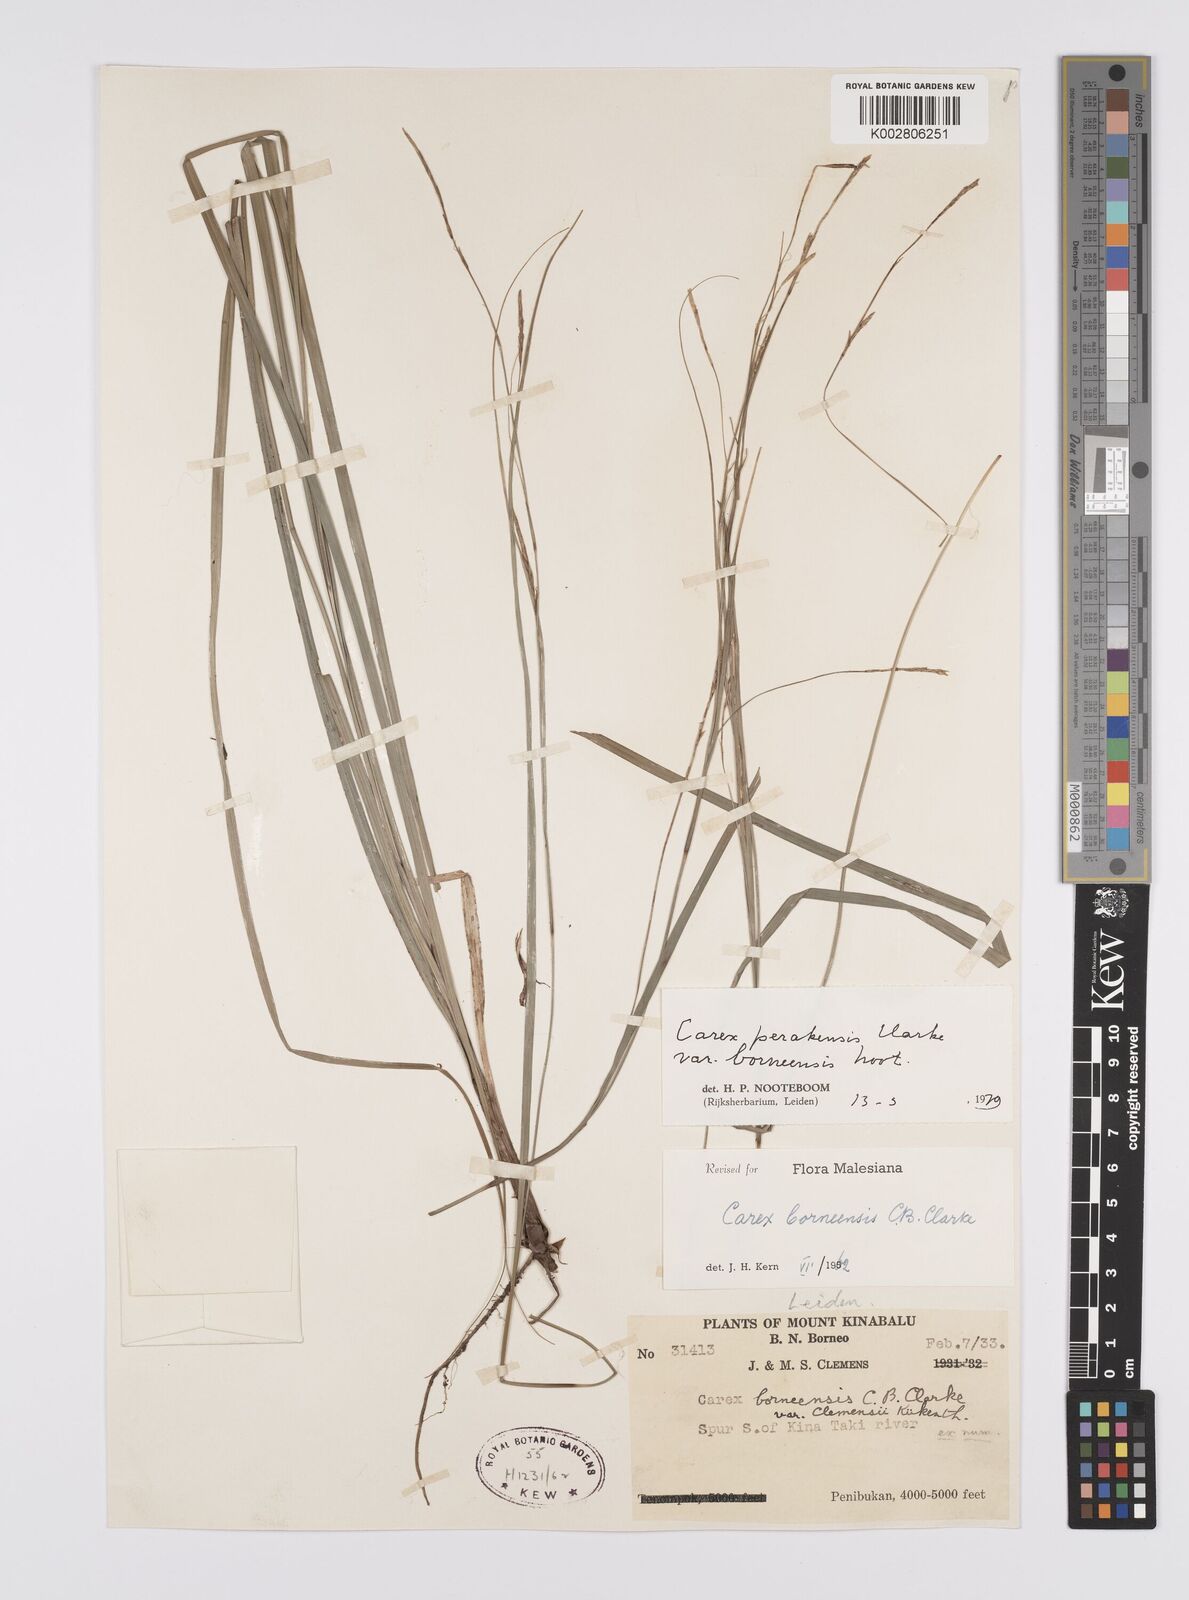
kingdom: Plantae
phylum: Tracheophyta
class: Liliopsida
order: Poales
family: Cyperaceae
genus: Carex
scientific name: Carex perakensis
